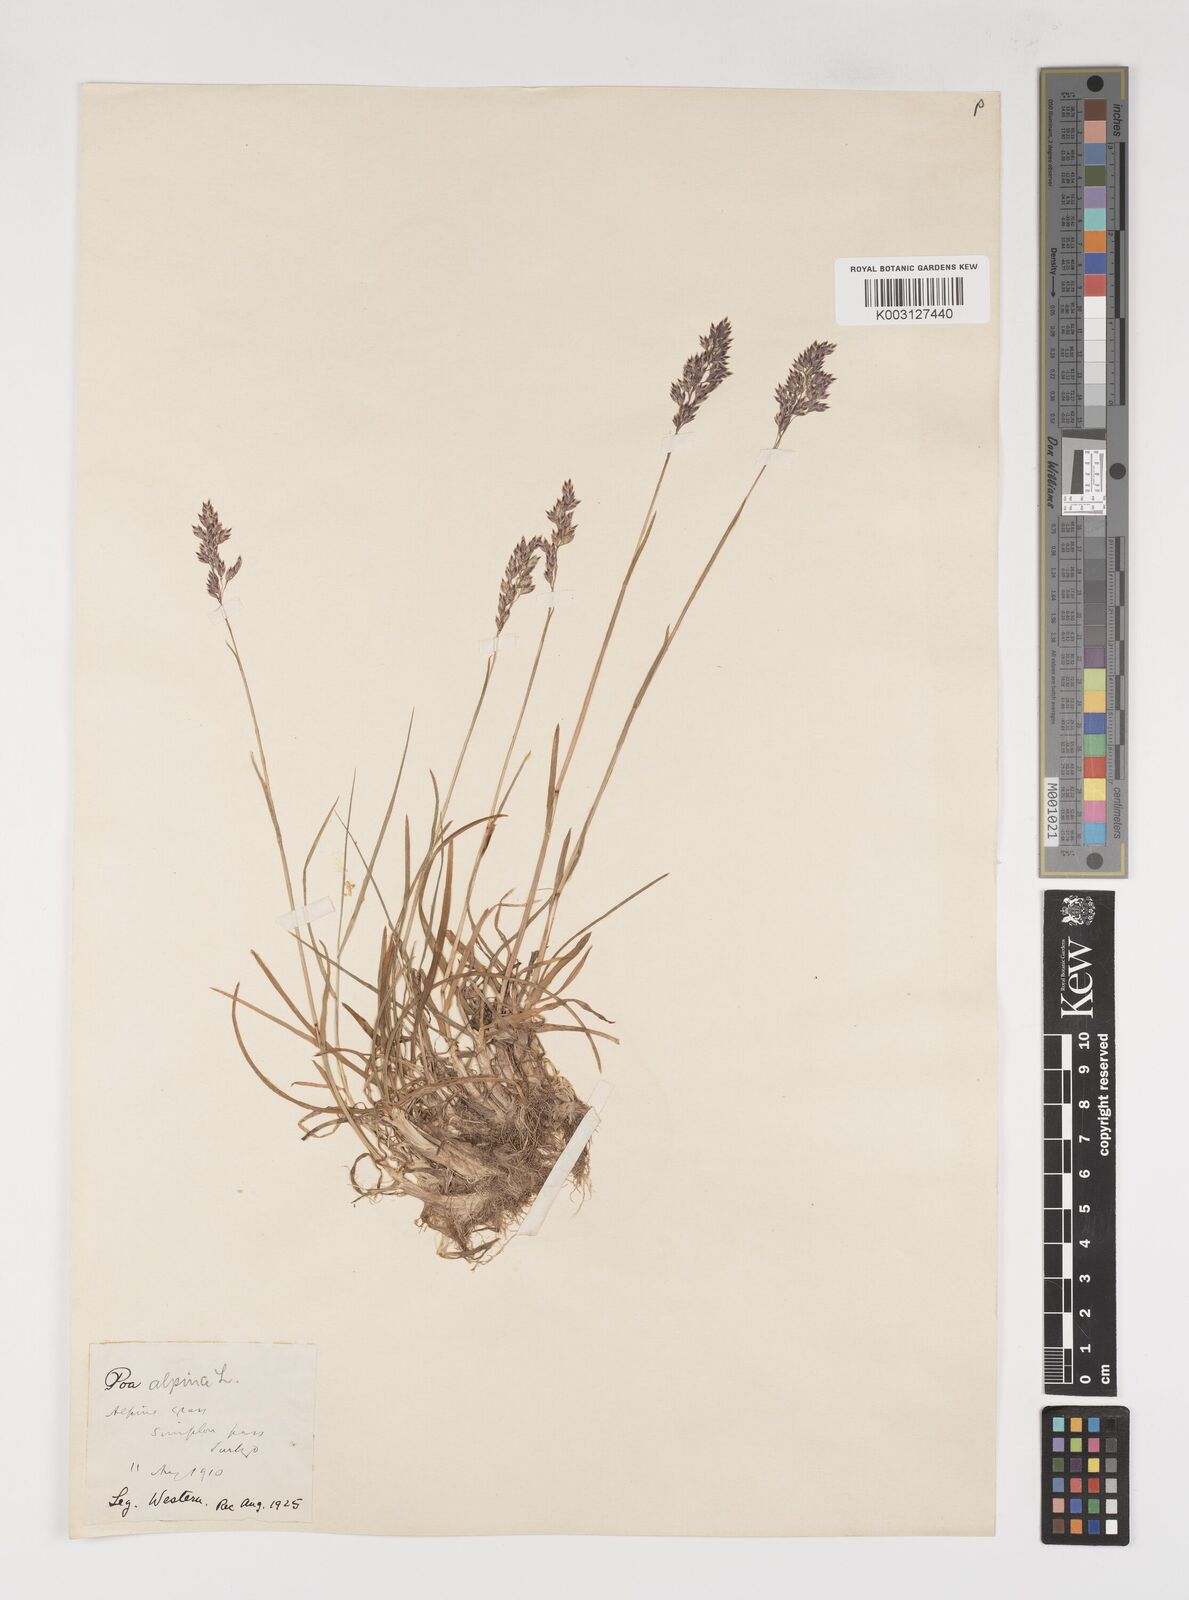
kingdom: Plantae
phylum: Tracheophyta
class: Liliopsida
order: Poales
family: Poaceae
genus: Poa
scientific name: Poa alpina
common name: Alpine bluegrass
